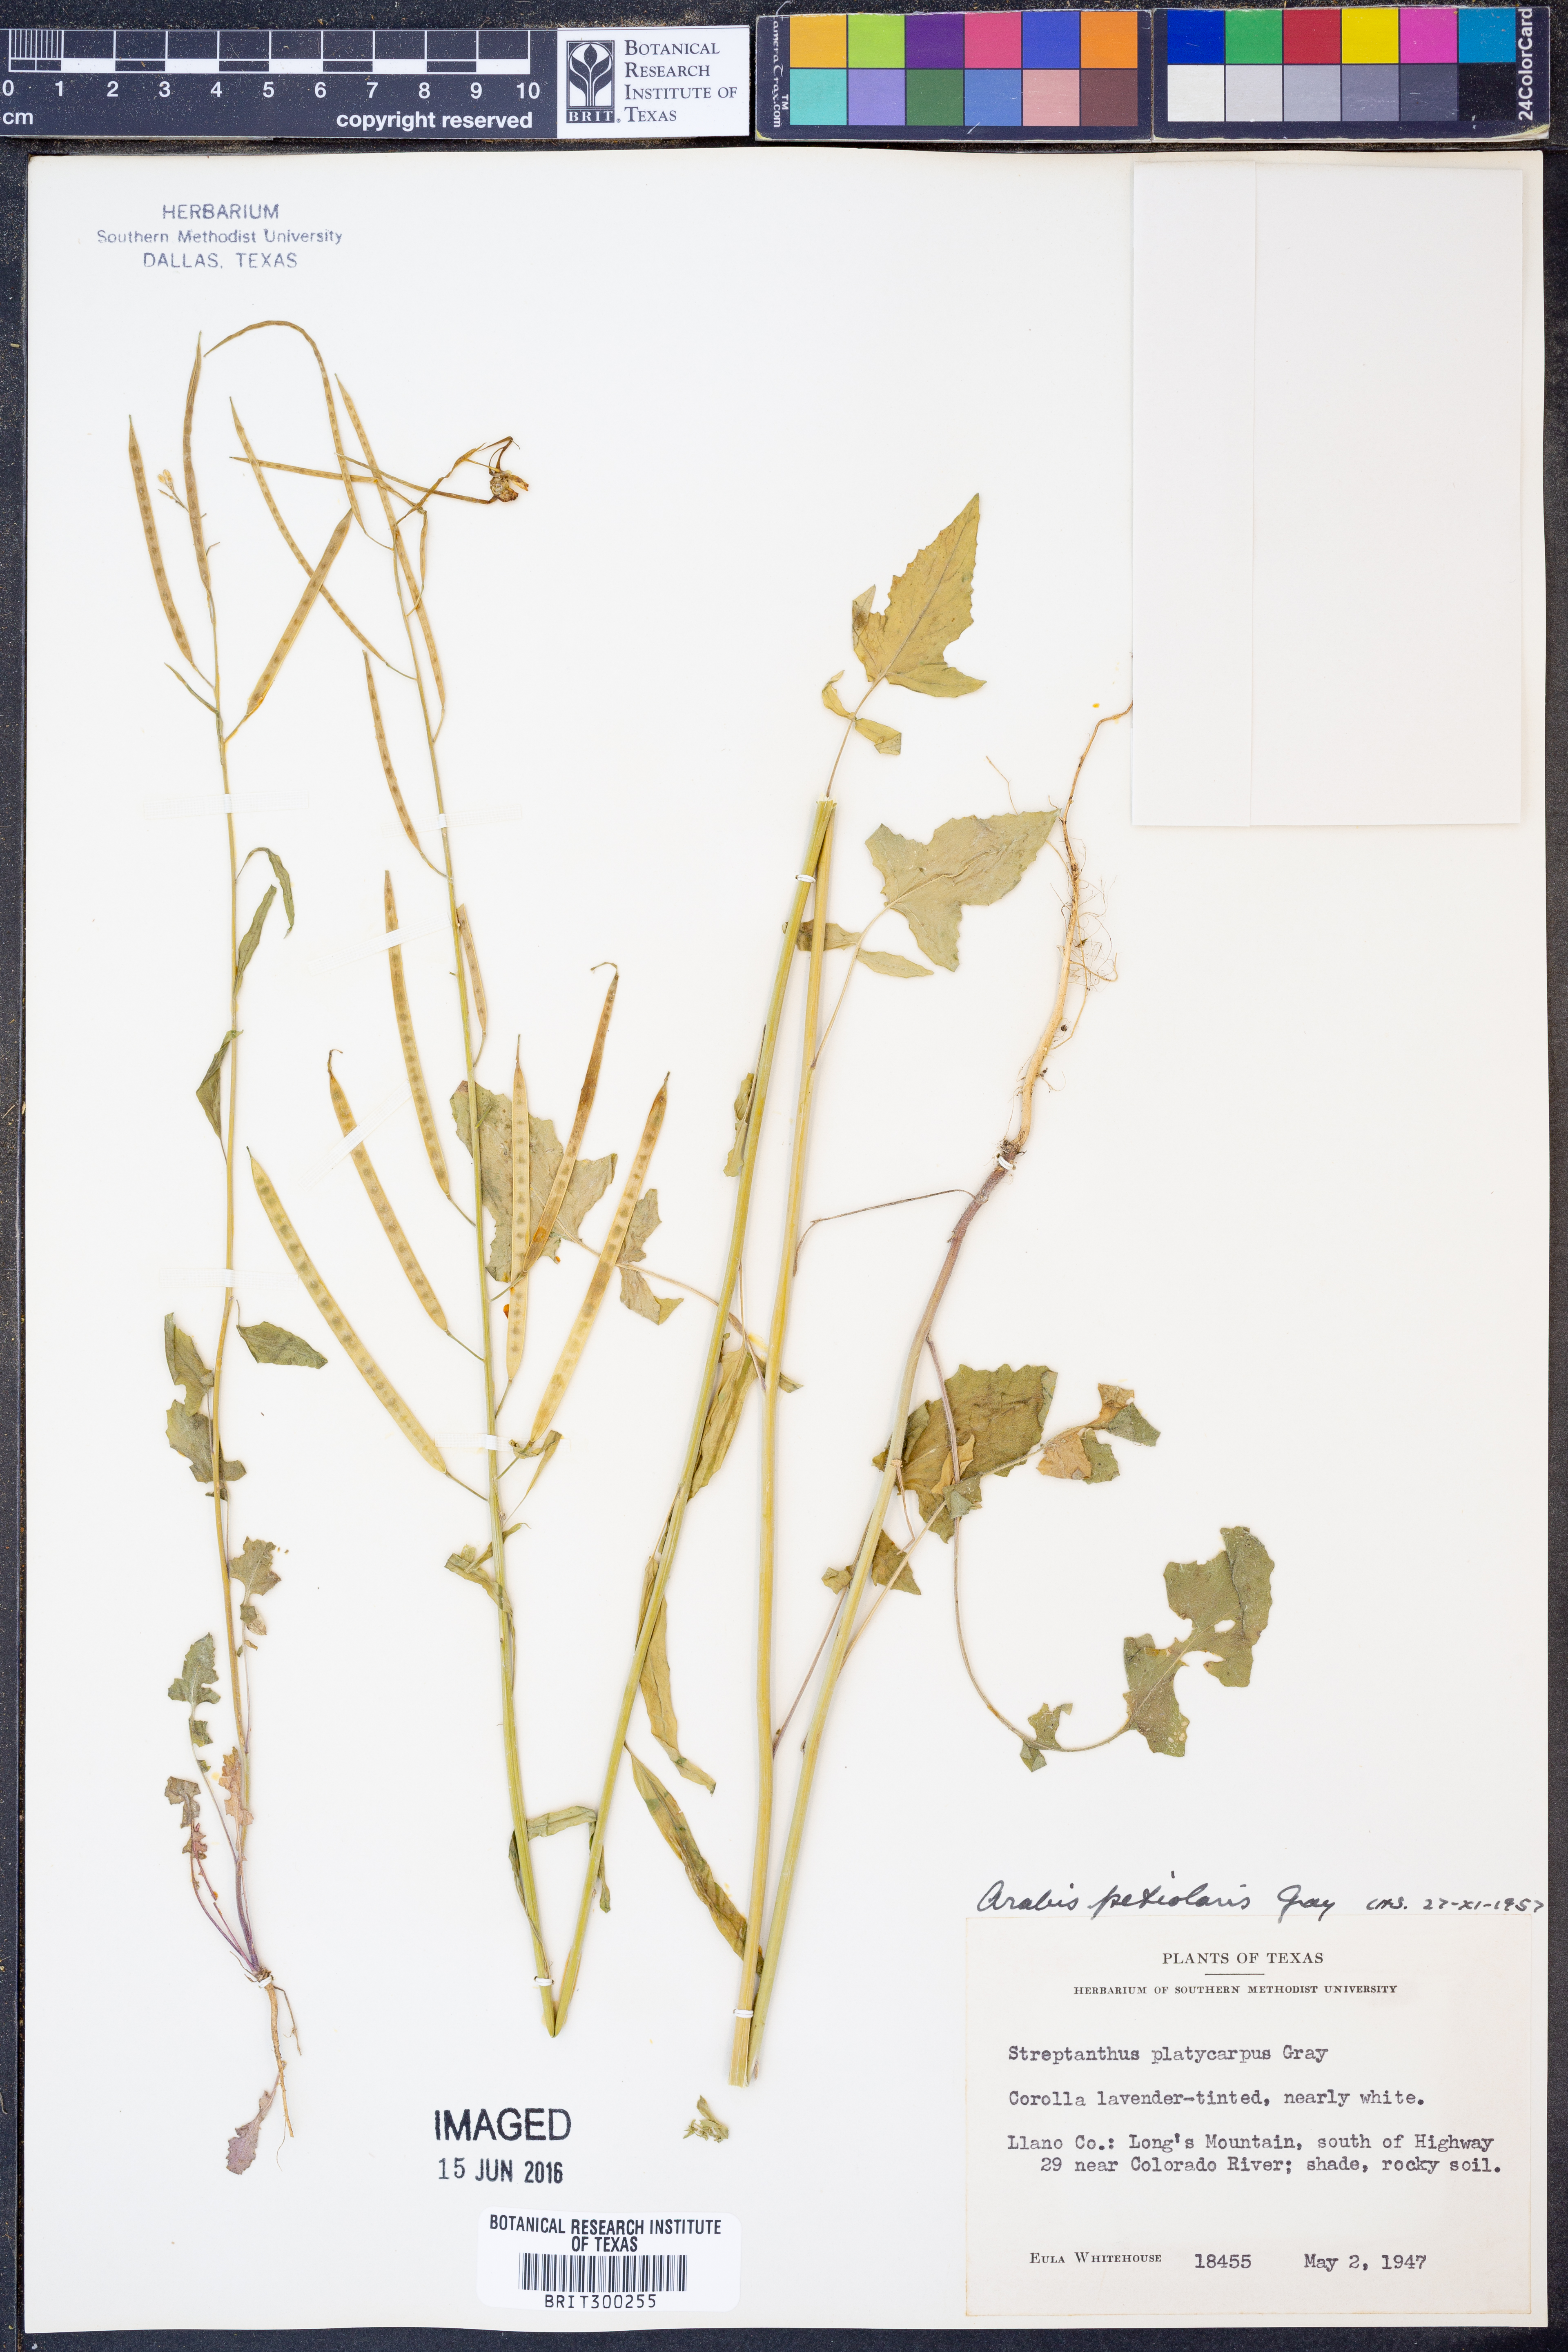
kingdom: Plantae
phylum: Tracheophyta
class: Magnoliopsida
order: Brassicales
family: Brassicaceae
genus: Streptanthus
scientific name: Streptanthus petiolaris
